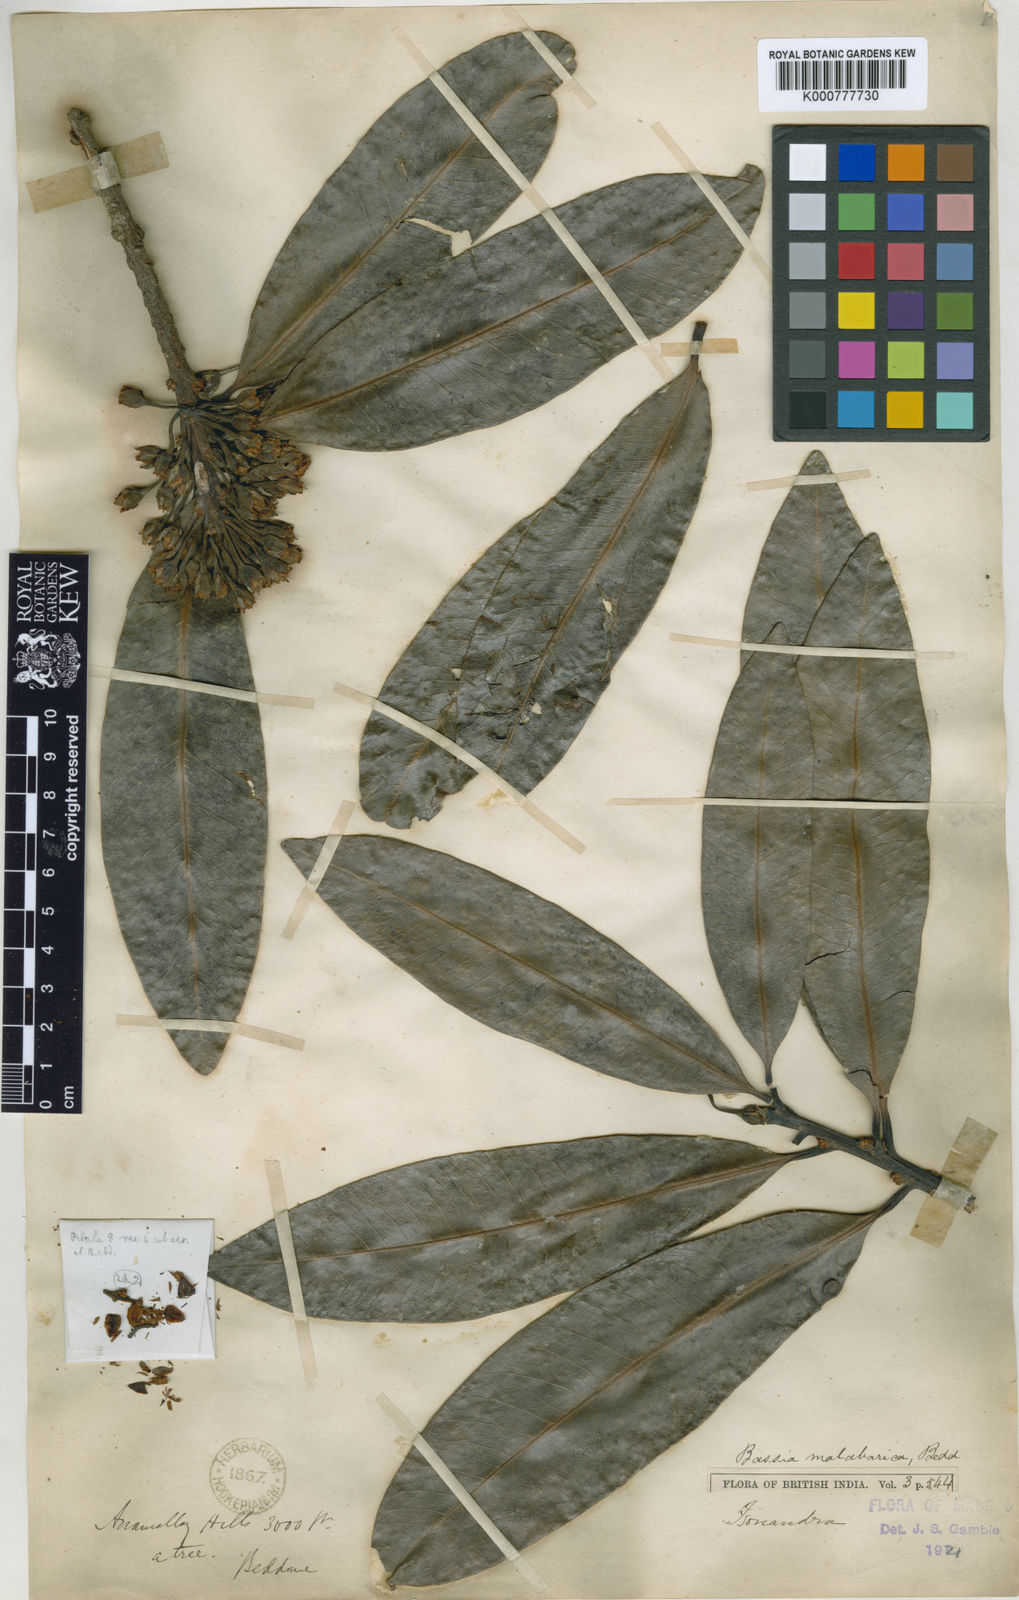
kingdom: Plantae
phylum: Tracheophyta
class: Magnoliopsida
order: Ericales
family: Sapotaceae
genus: Madhuca
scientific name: Madhuca neriifolia
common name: Illipe butter tree
